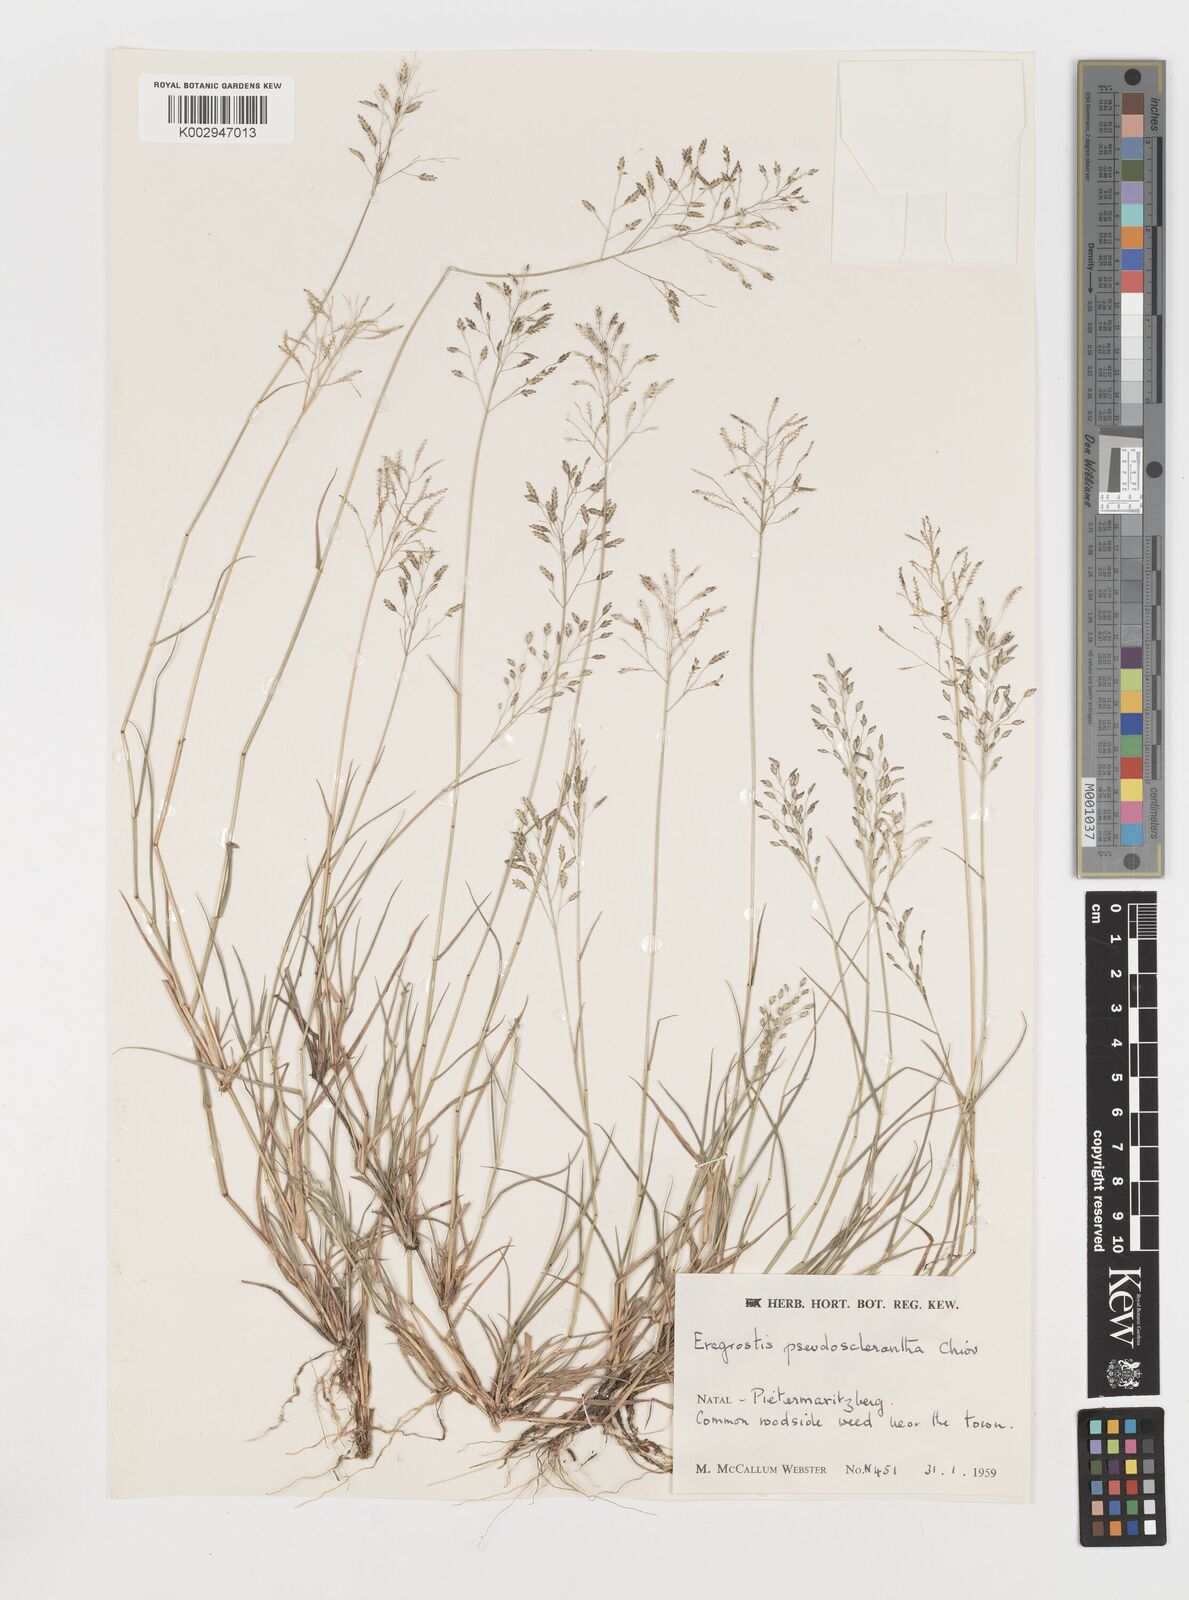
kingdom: Plantae
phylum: Tracheophyta
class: Liliopsida
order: Poales
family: Poaceae
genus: Eragrostis
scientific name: Eragrostis patentipilosa
